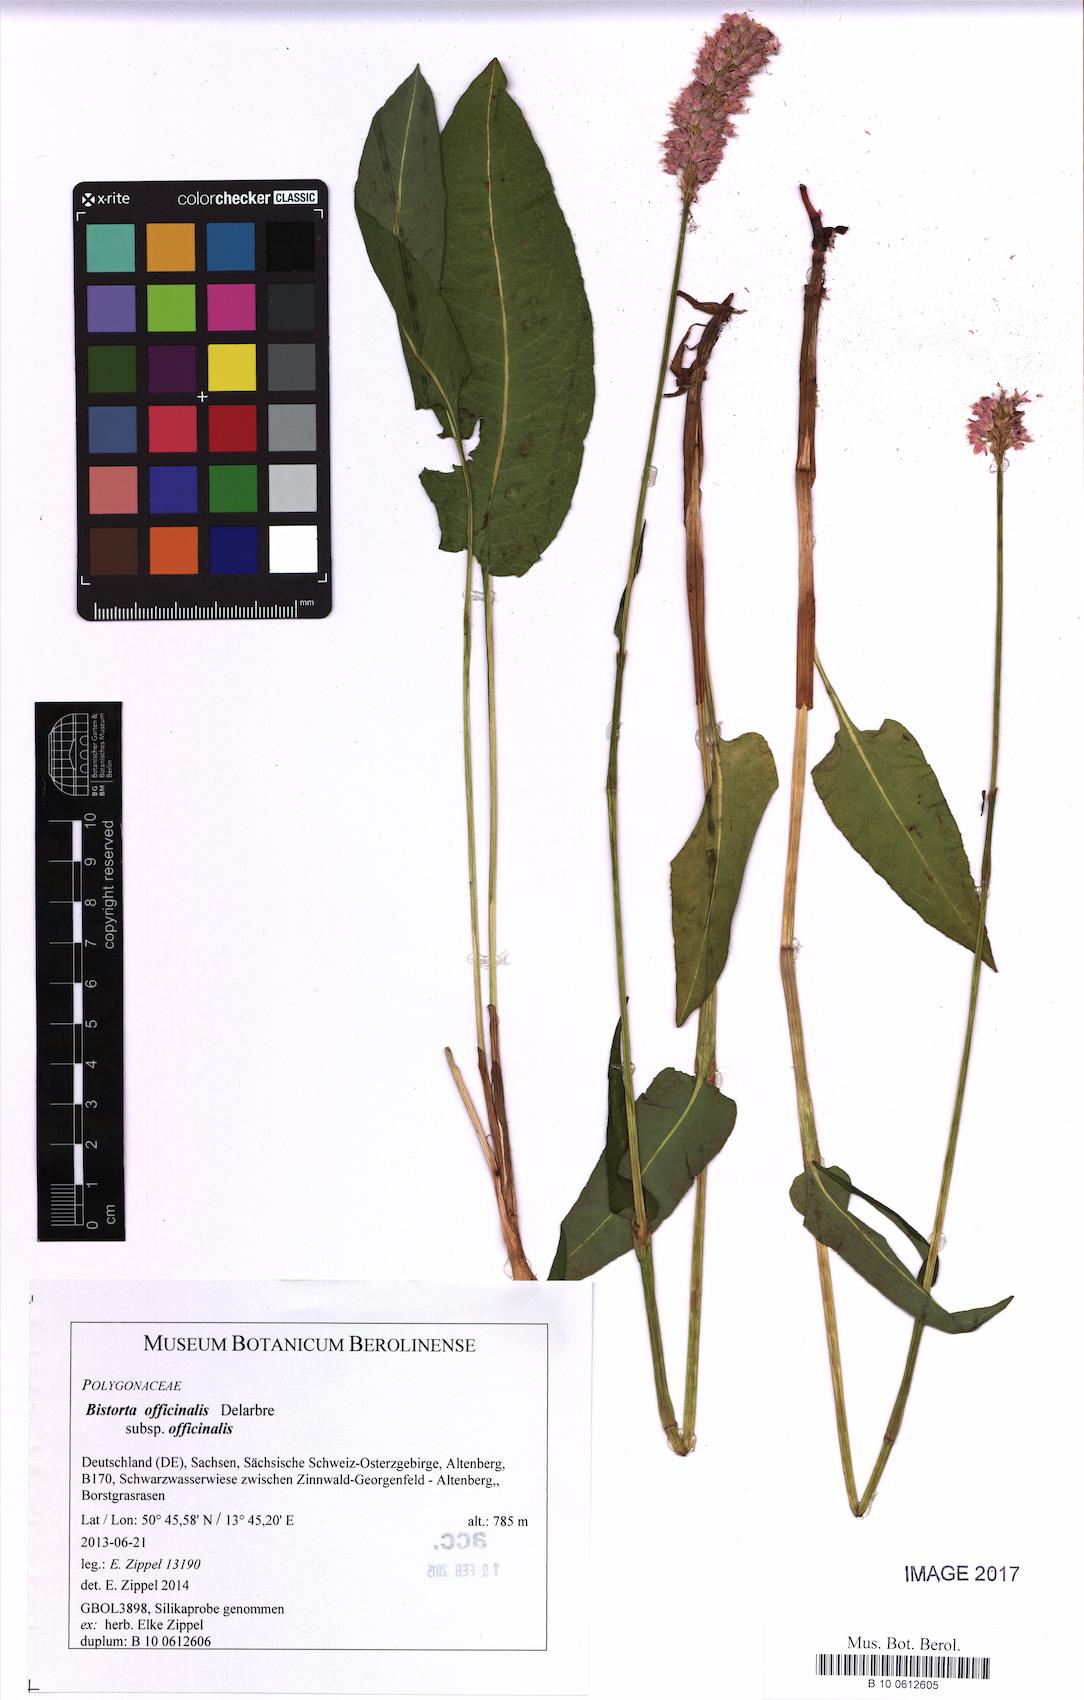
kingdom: Plantae
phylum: Tracheophyta
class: Magnoliopsida
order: Caryophyllales
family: Polygonaceae
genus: Bistorta
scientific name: Bistorta officinalis
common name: Common bistort
